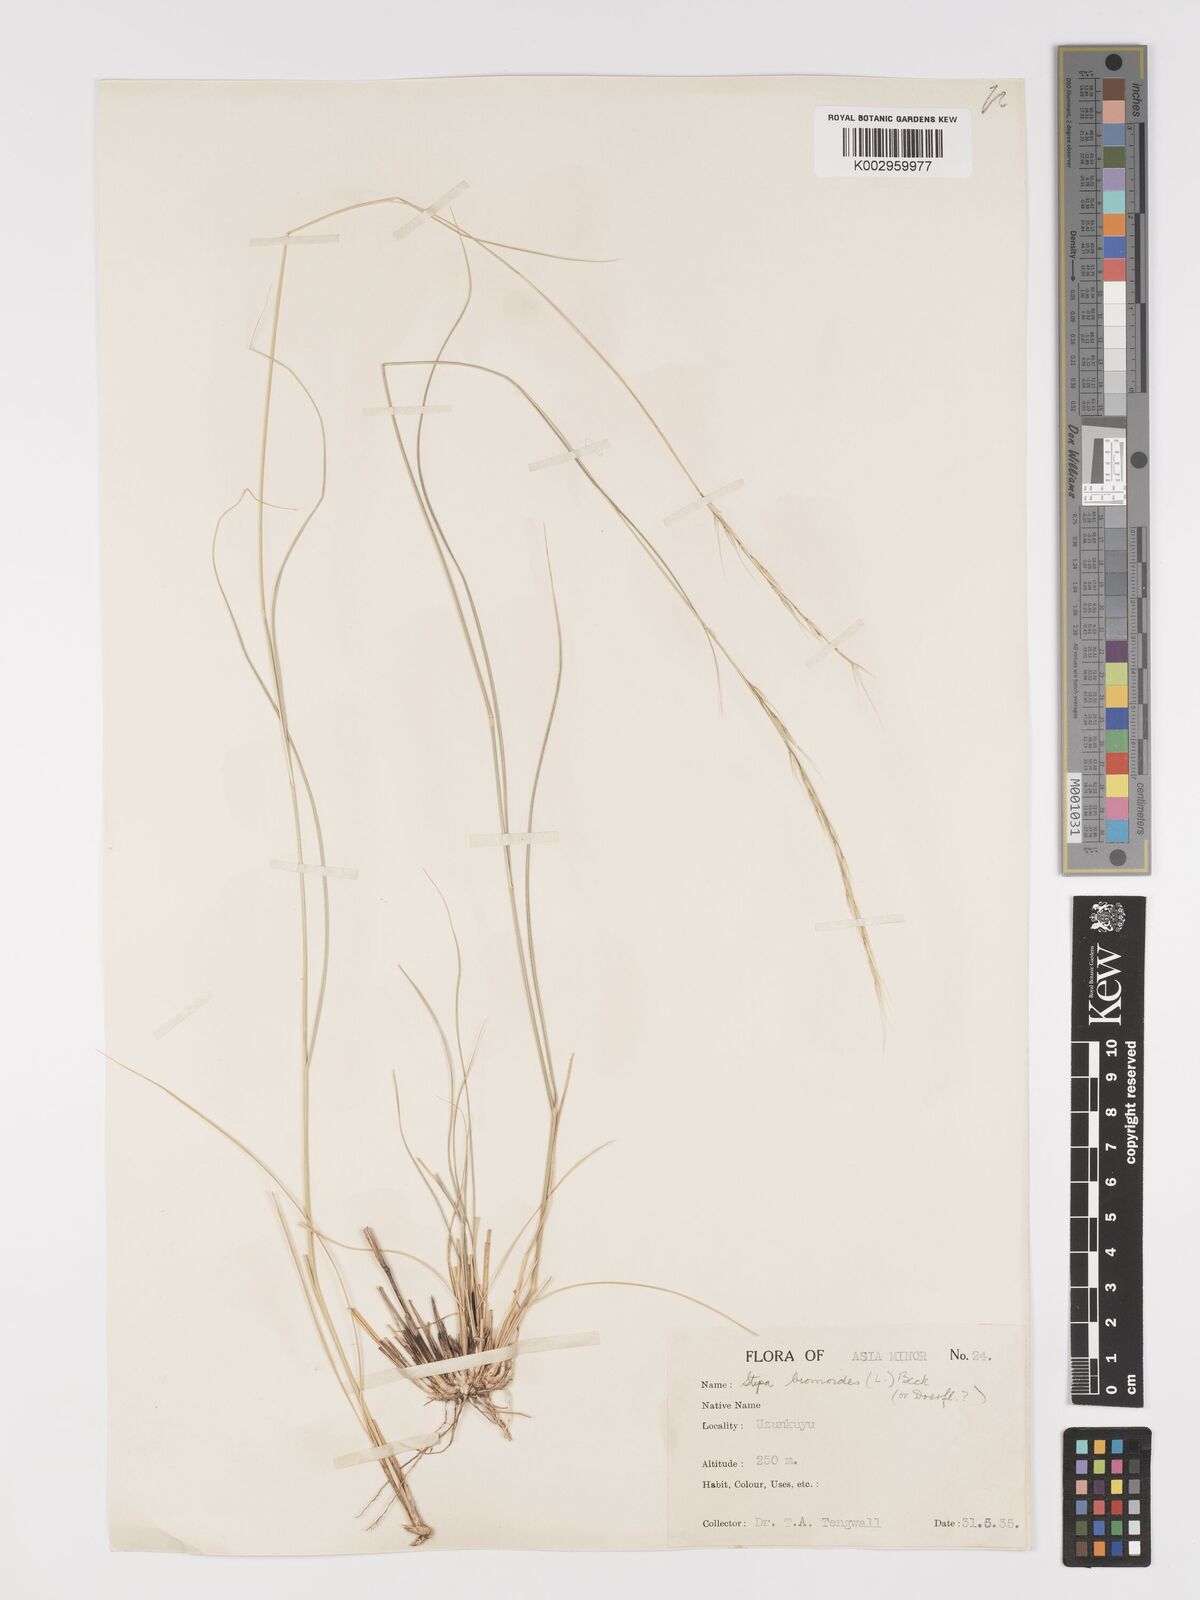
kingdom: Plantae
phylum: Tracheophyta
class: Liliopsida
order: Poales
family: Poaceae
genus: Achnatherum
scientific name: Achnatherum bromoides
